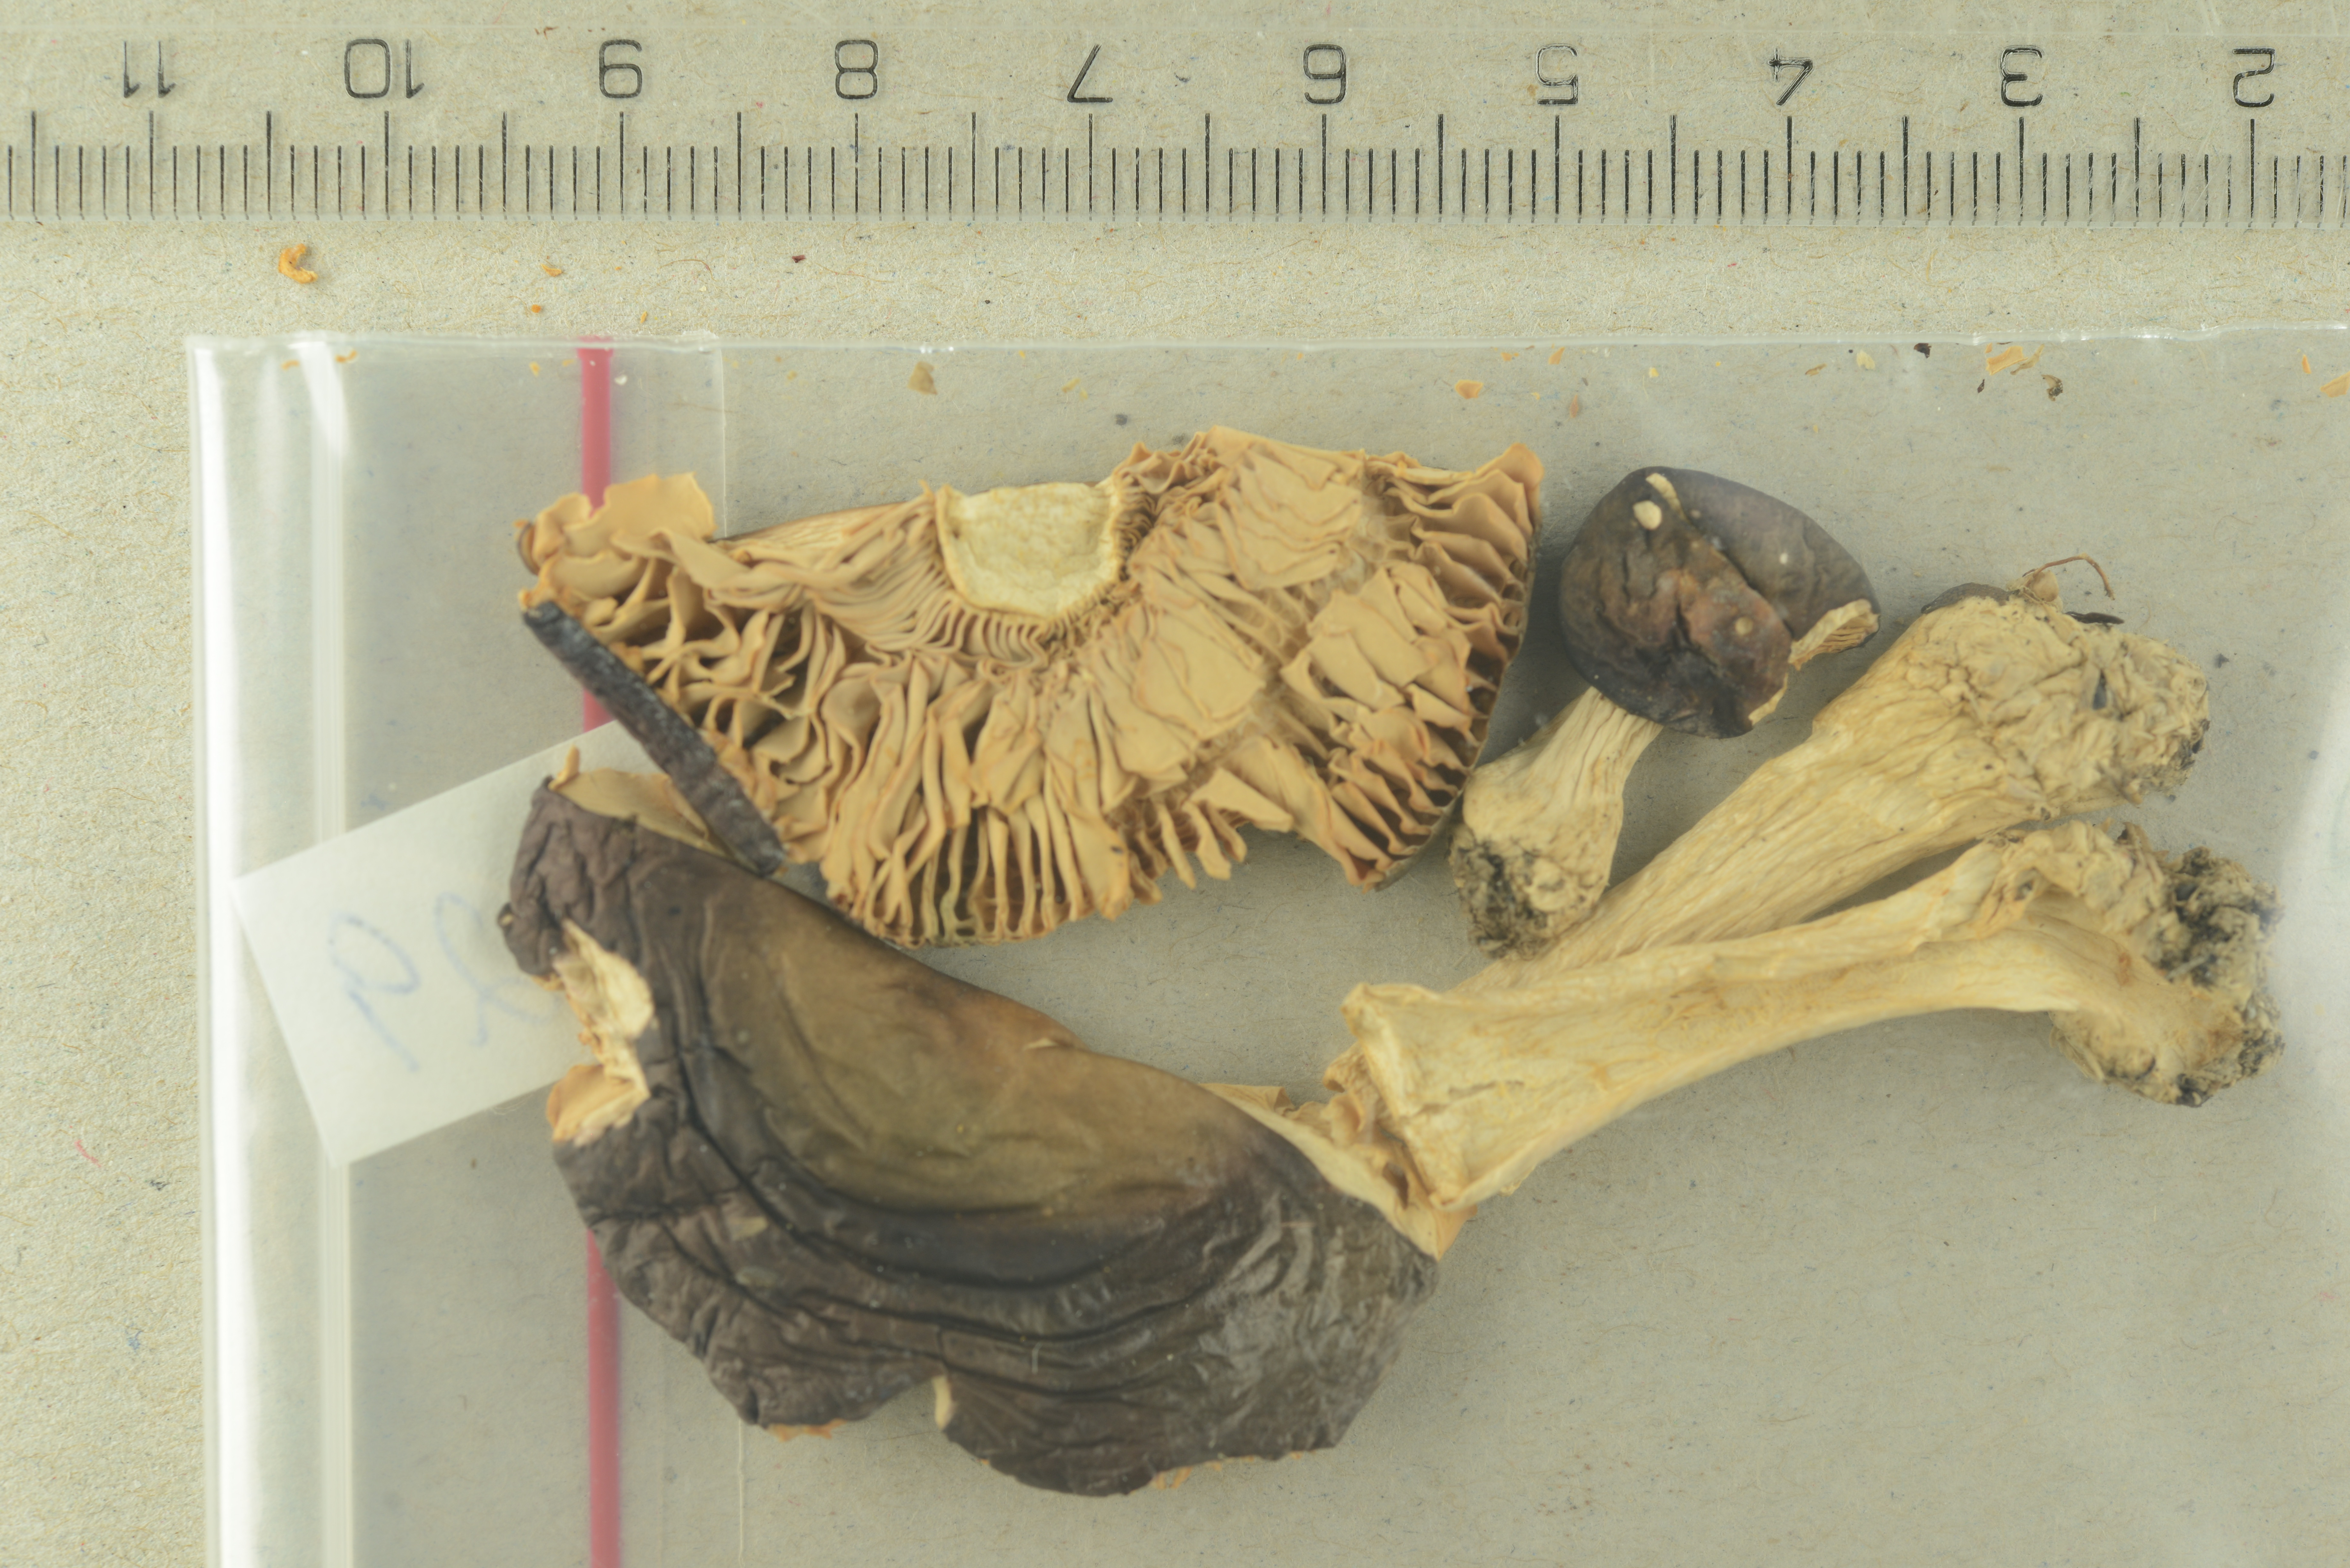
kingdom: Fungi
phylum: Basidiomycota
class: Agaricomycetes
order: Russulales
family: Russulaceae
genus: Russula
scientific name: Russula saliceticola
